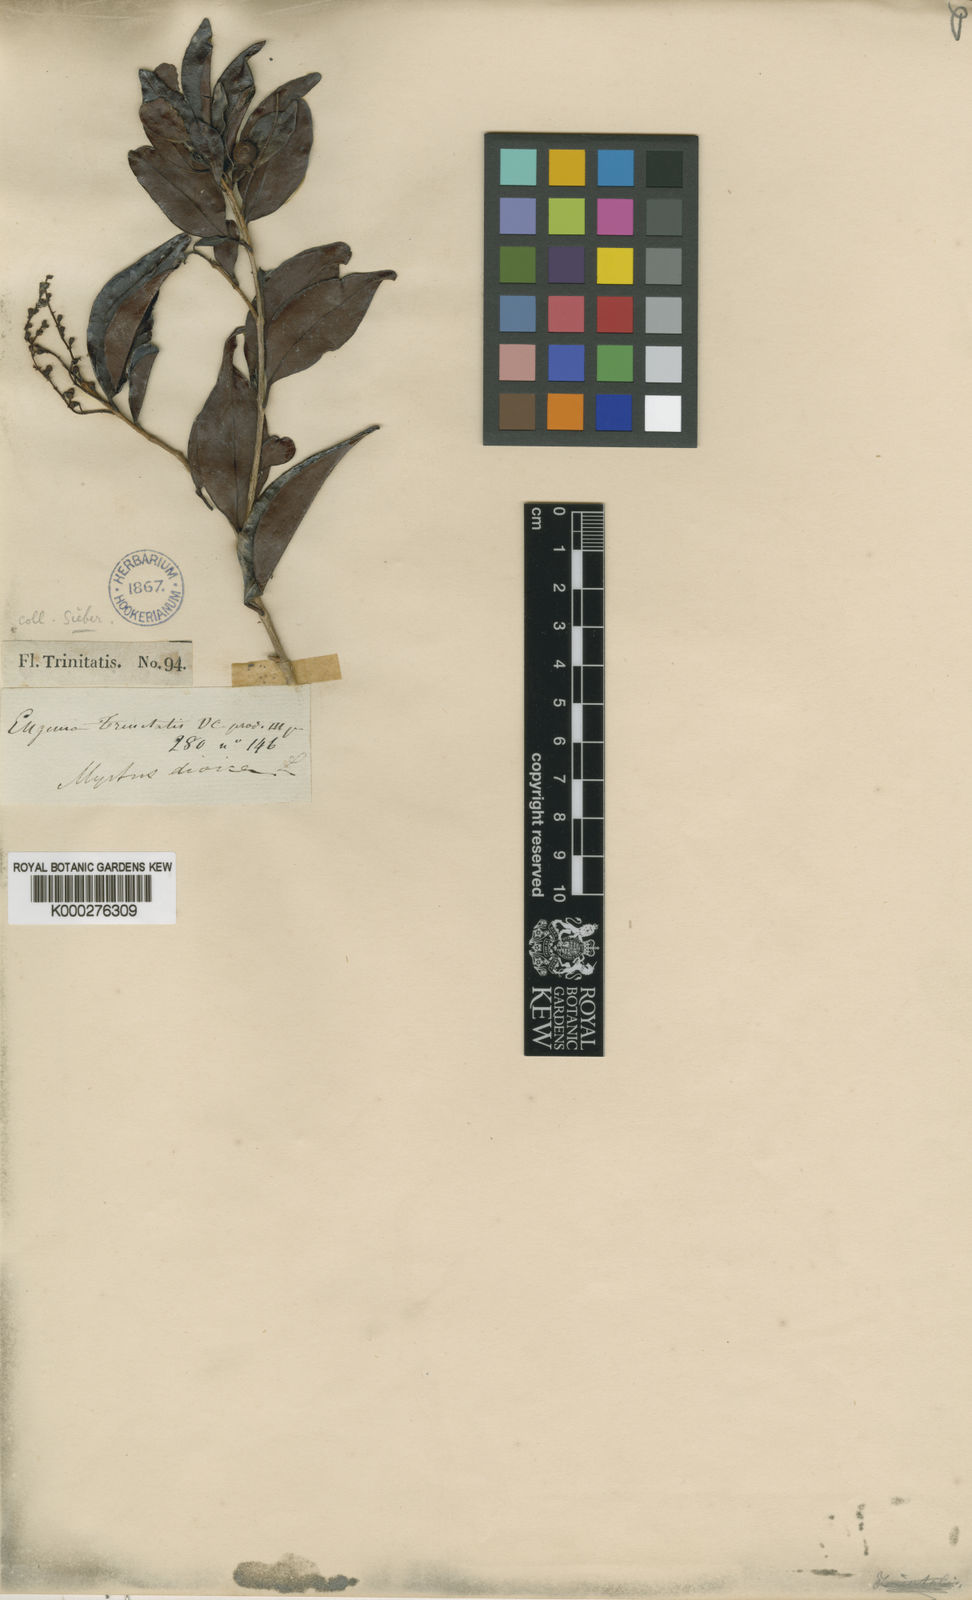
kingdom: Plantae
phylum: Tracheophyta
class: Magnoliopsida
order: Myrtales
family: Myrtaceae
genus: Eugenia
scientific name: Eugenia
